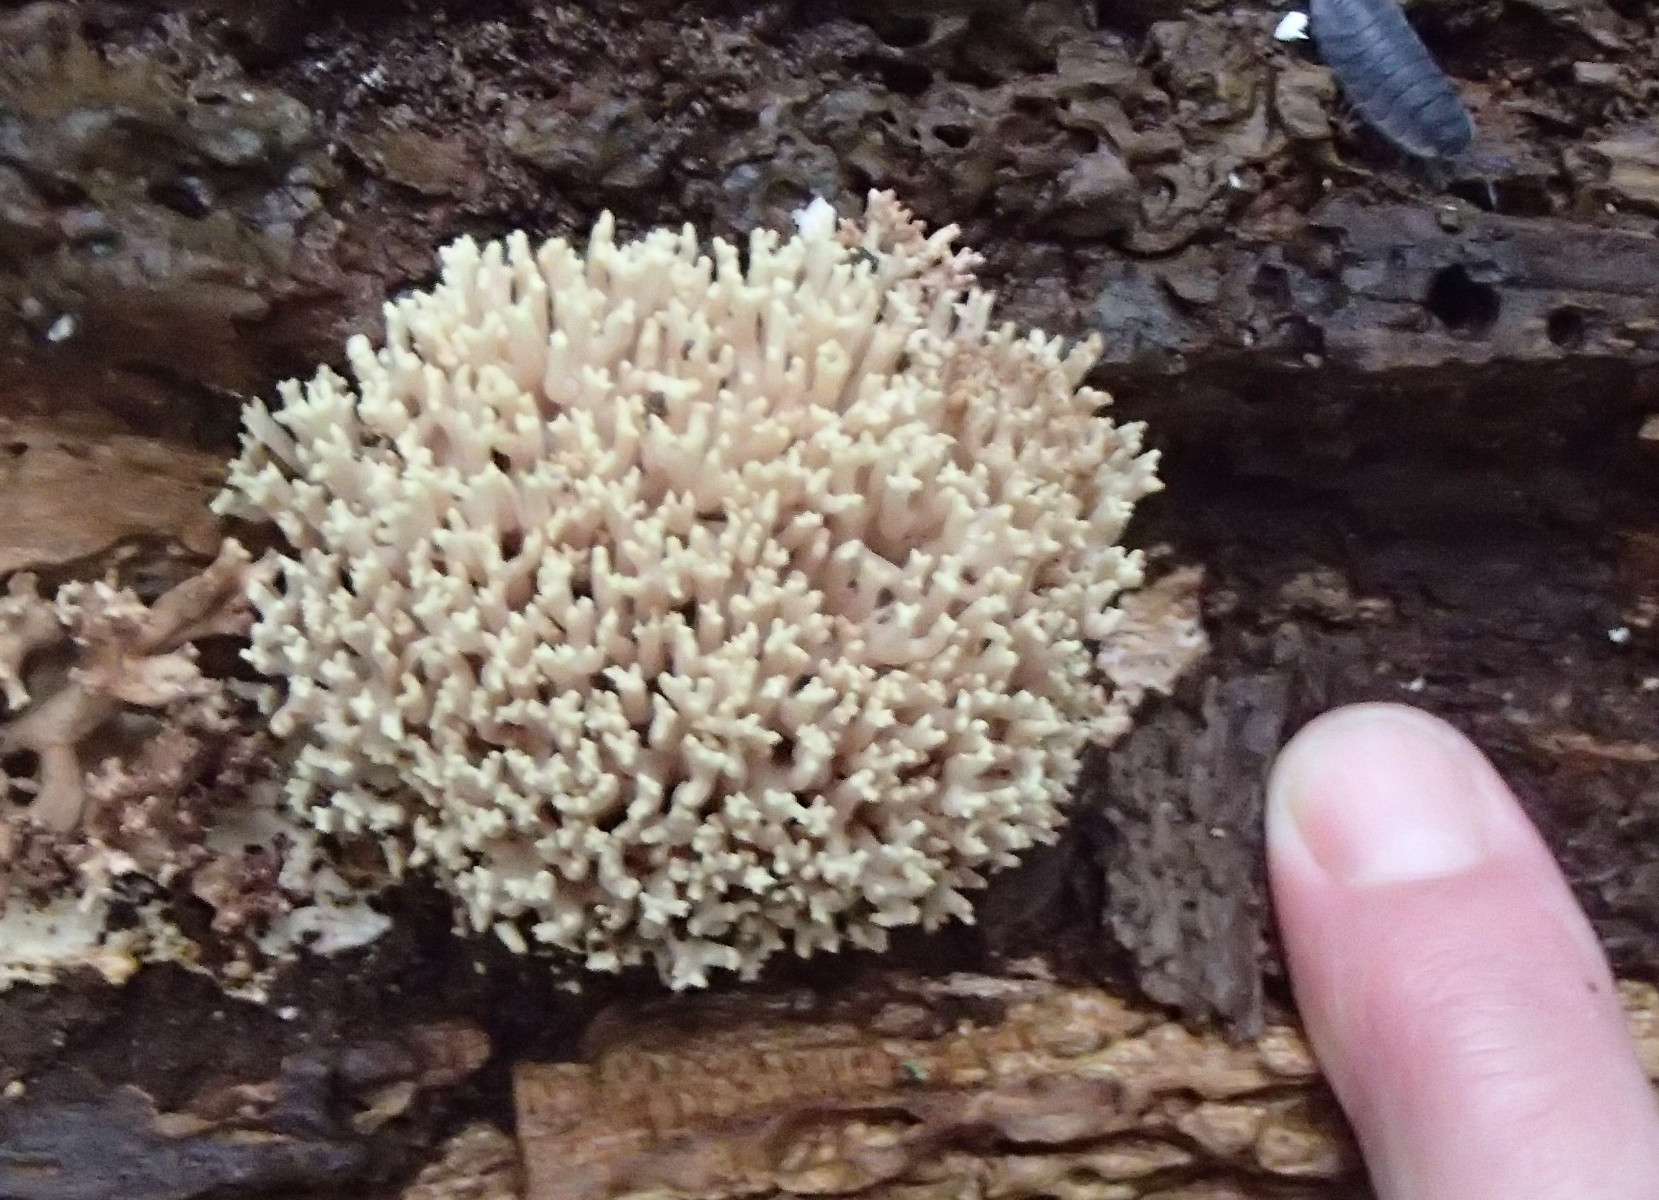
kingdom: Fungi
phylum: Basidiomycota
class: Agaricomycetes
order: Gomphales
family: Gomphaceae
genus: Ramaria
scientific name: Ramaria stricta
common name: rank koralsvamp
